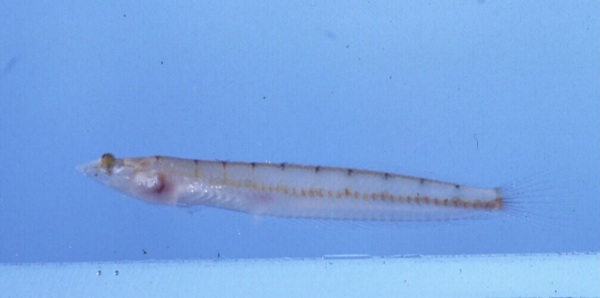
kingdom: Animalia
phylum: Chordata
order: Perciformes
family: Creediidae
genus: Limnichthys
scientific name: Limnichthys nitidus
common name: Donaldson's sandburrower
